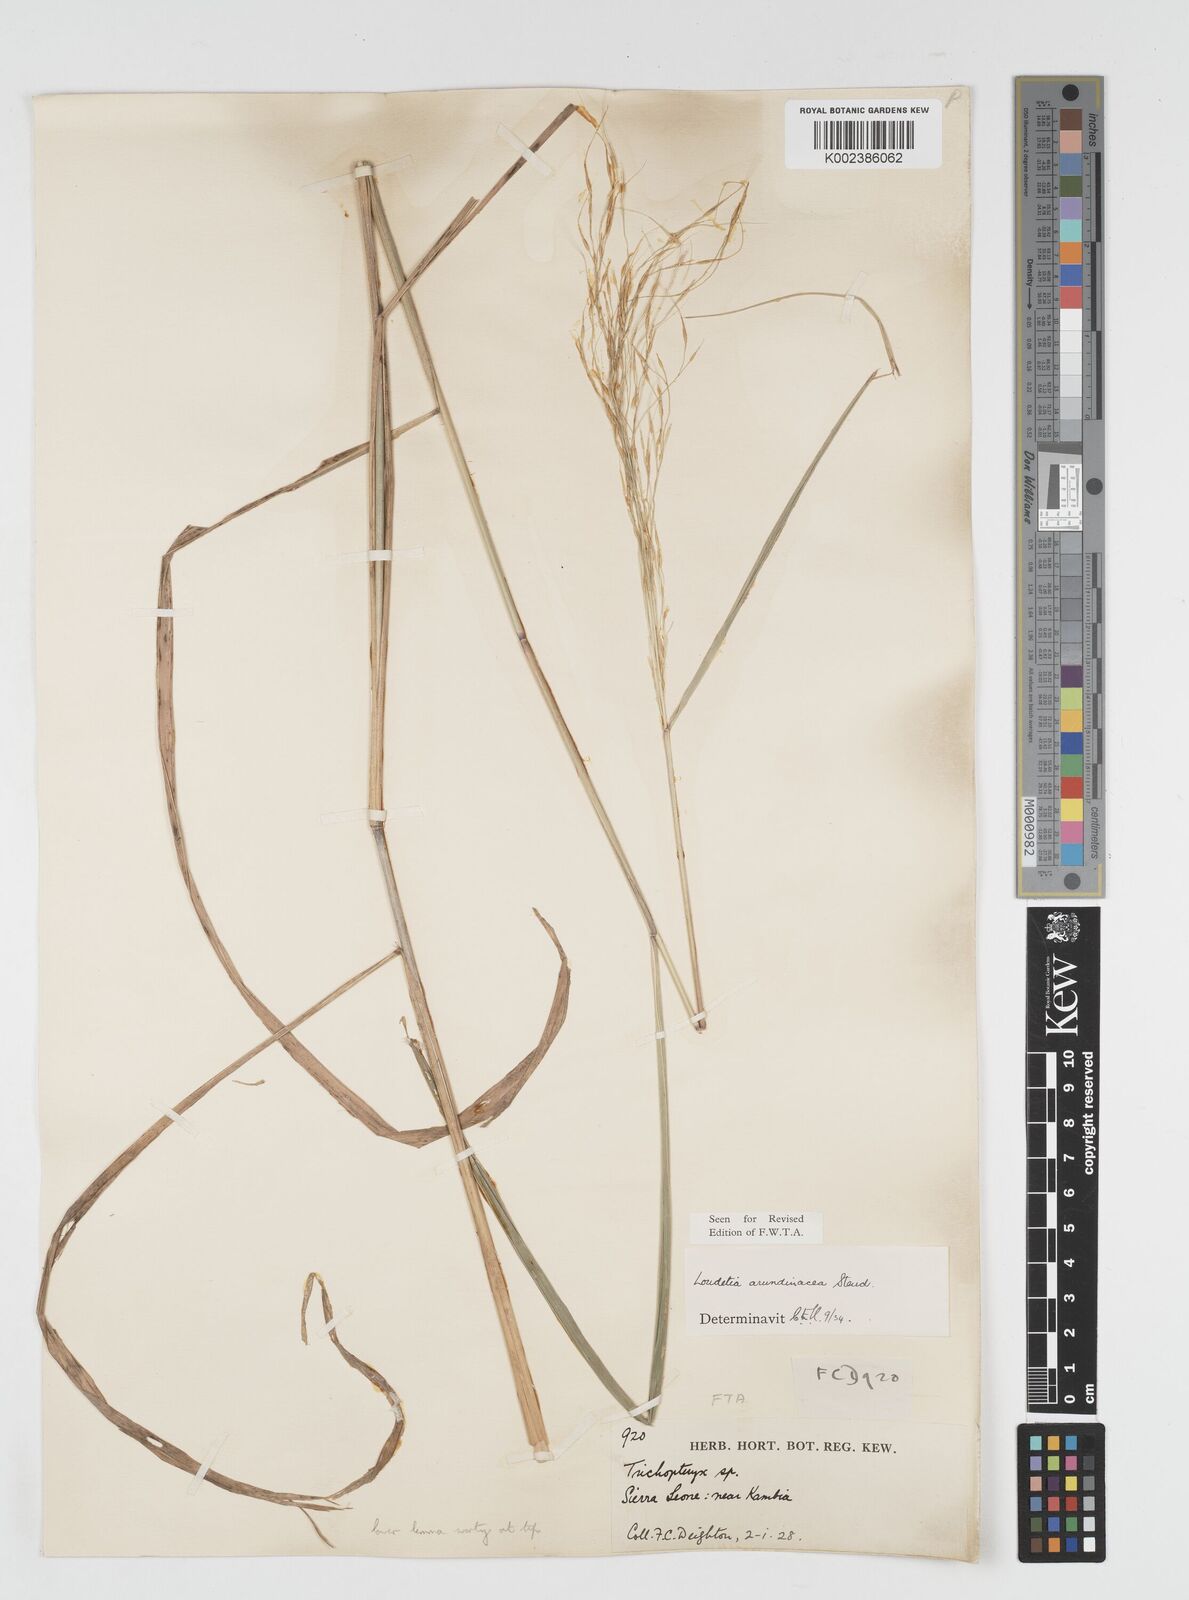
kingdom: Plantae
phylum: Tracheophyta
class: Liliopsida
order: Poales
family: Poaceae
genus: Loudetia
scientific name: Loudetia arundinacea
